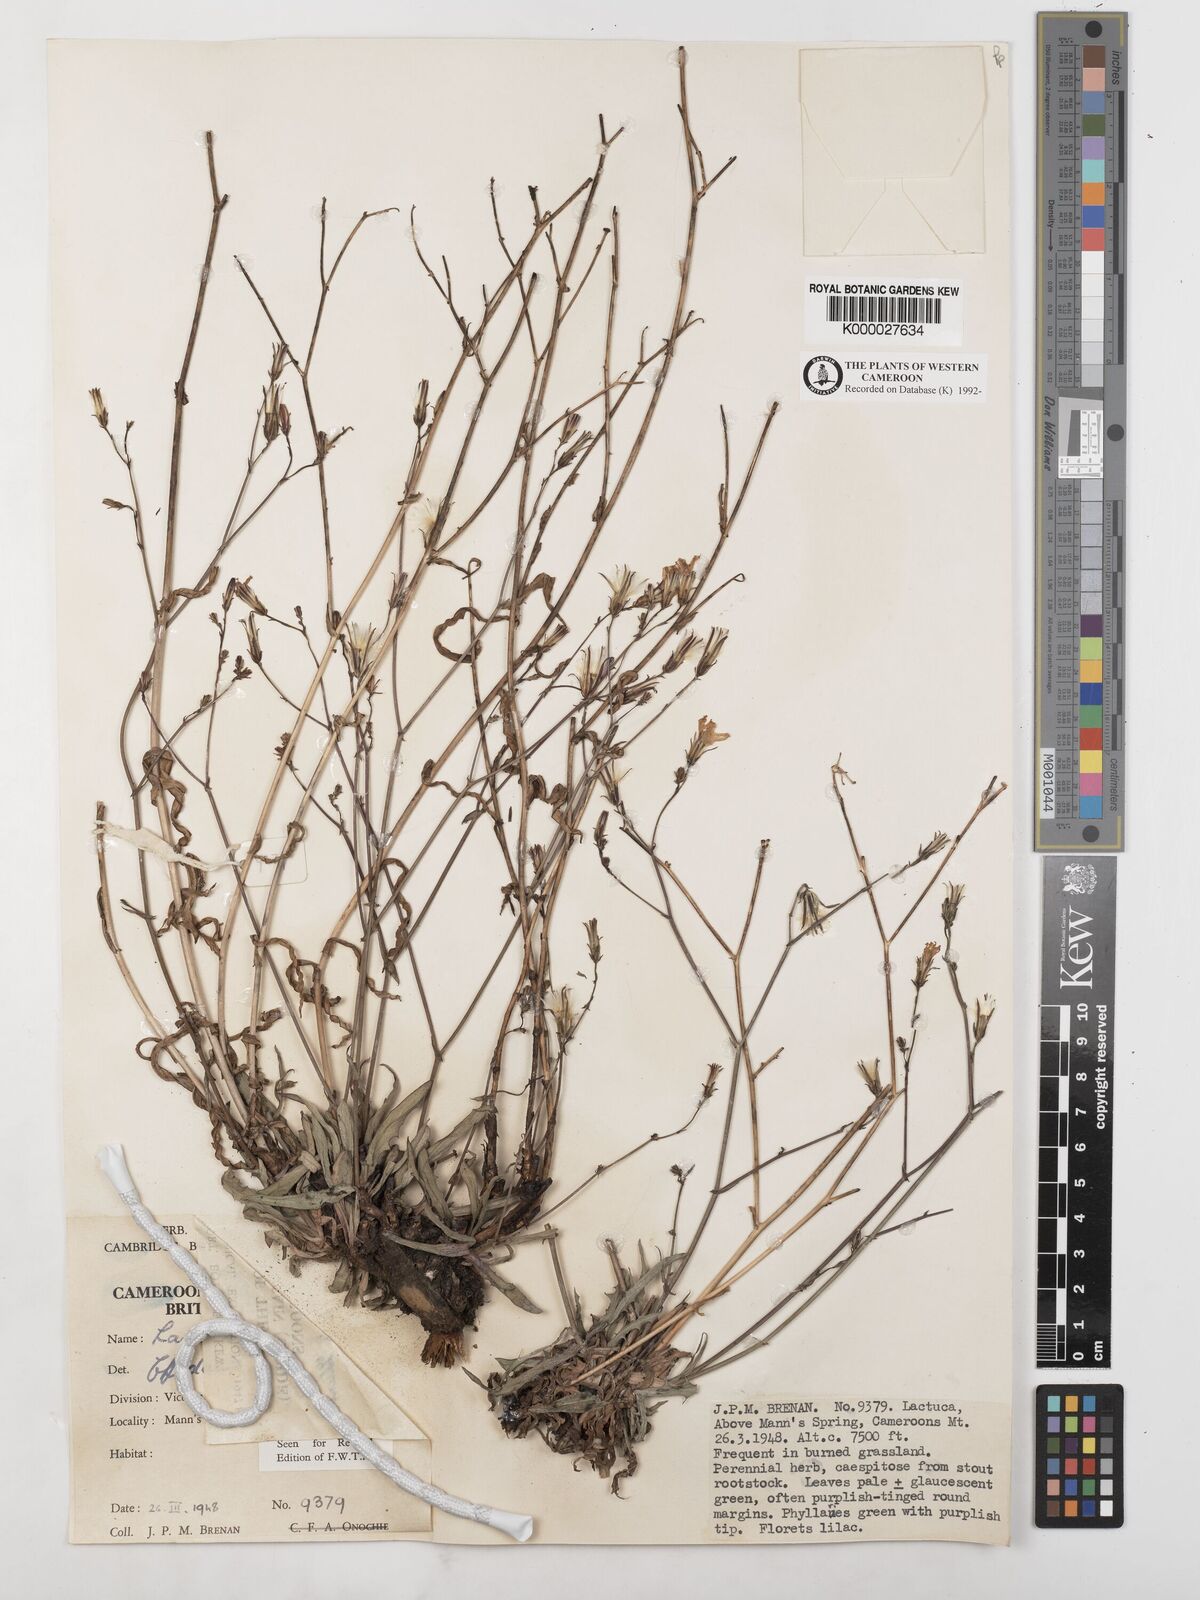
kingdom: Plantae
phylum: Tracheophyta
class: Magnoliopsida
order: Asterales
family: Asteraceae
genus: Lactuca
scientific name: Lactuca inermis
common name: Wild lettuce
